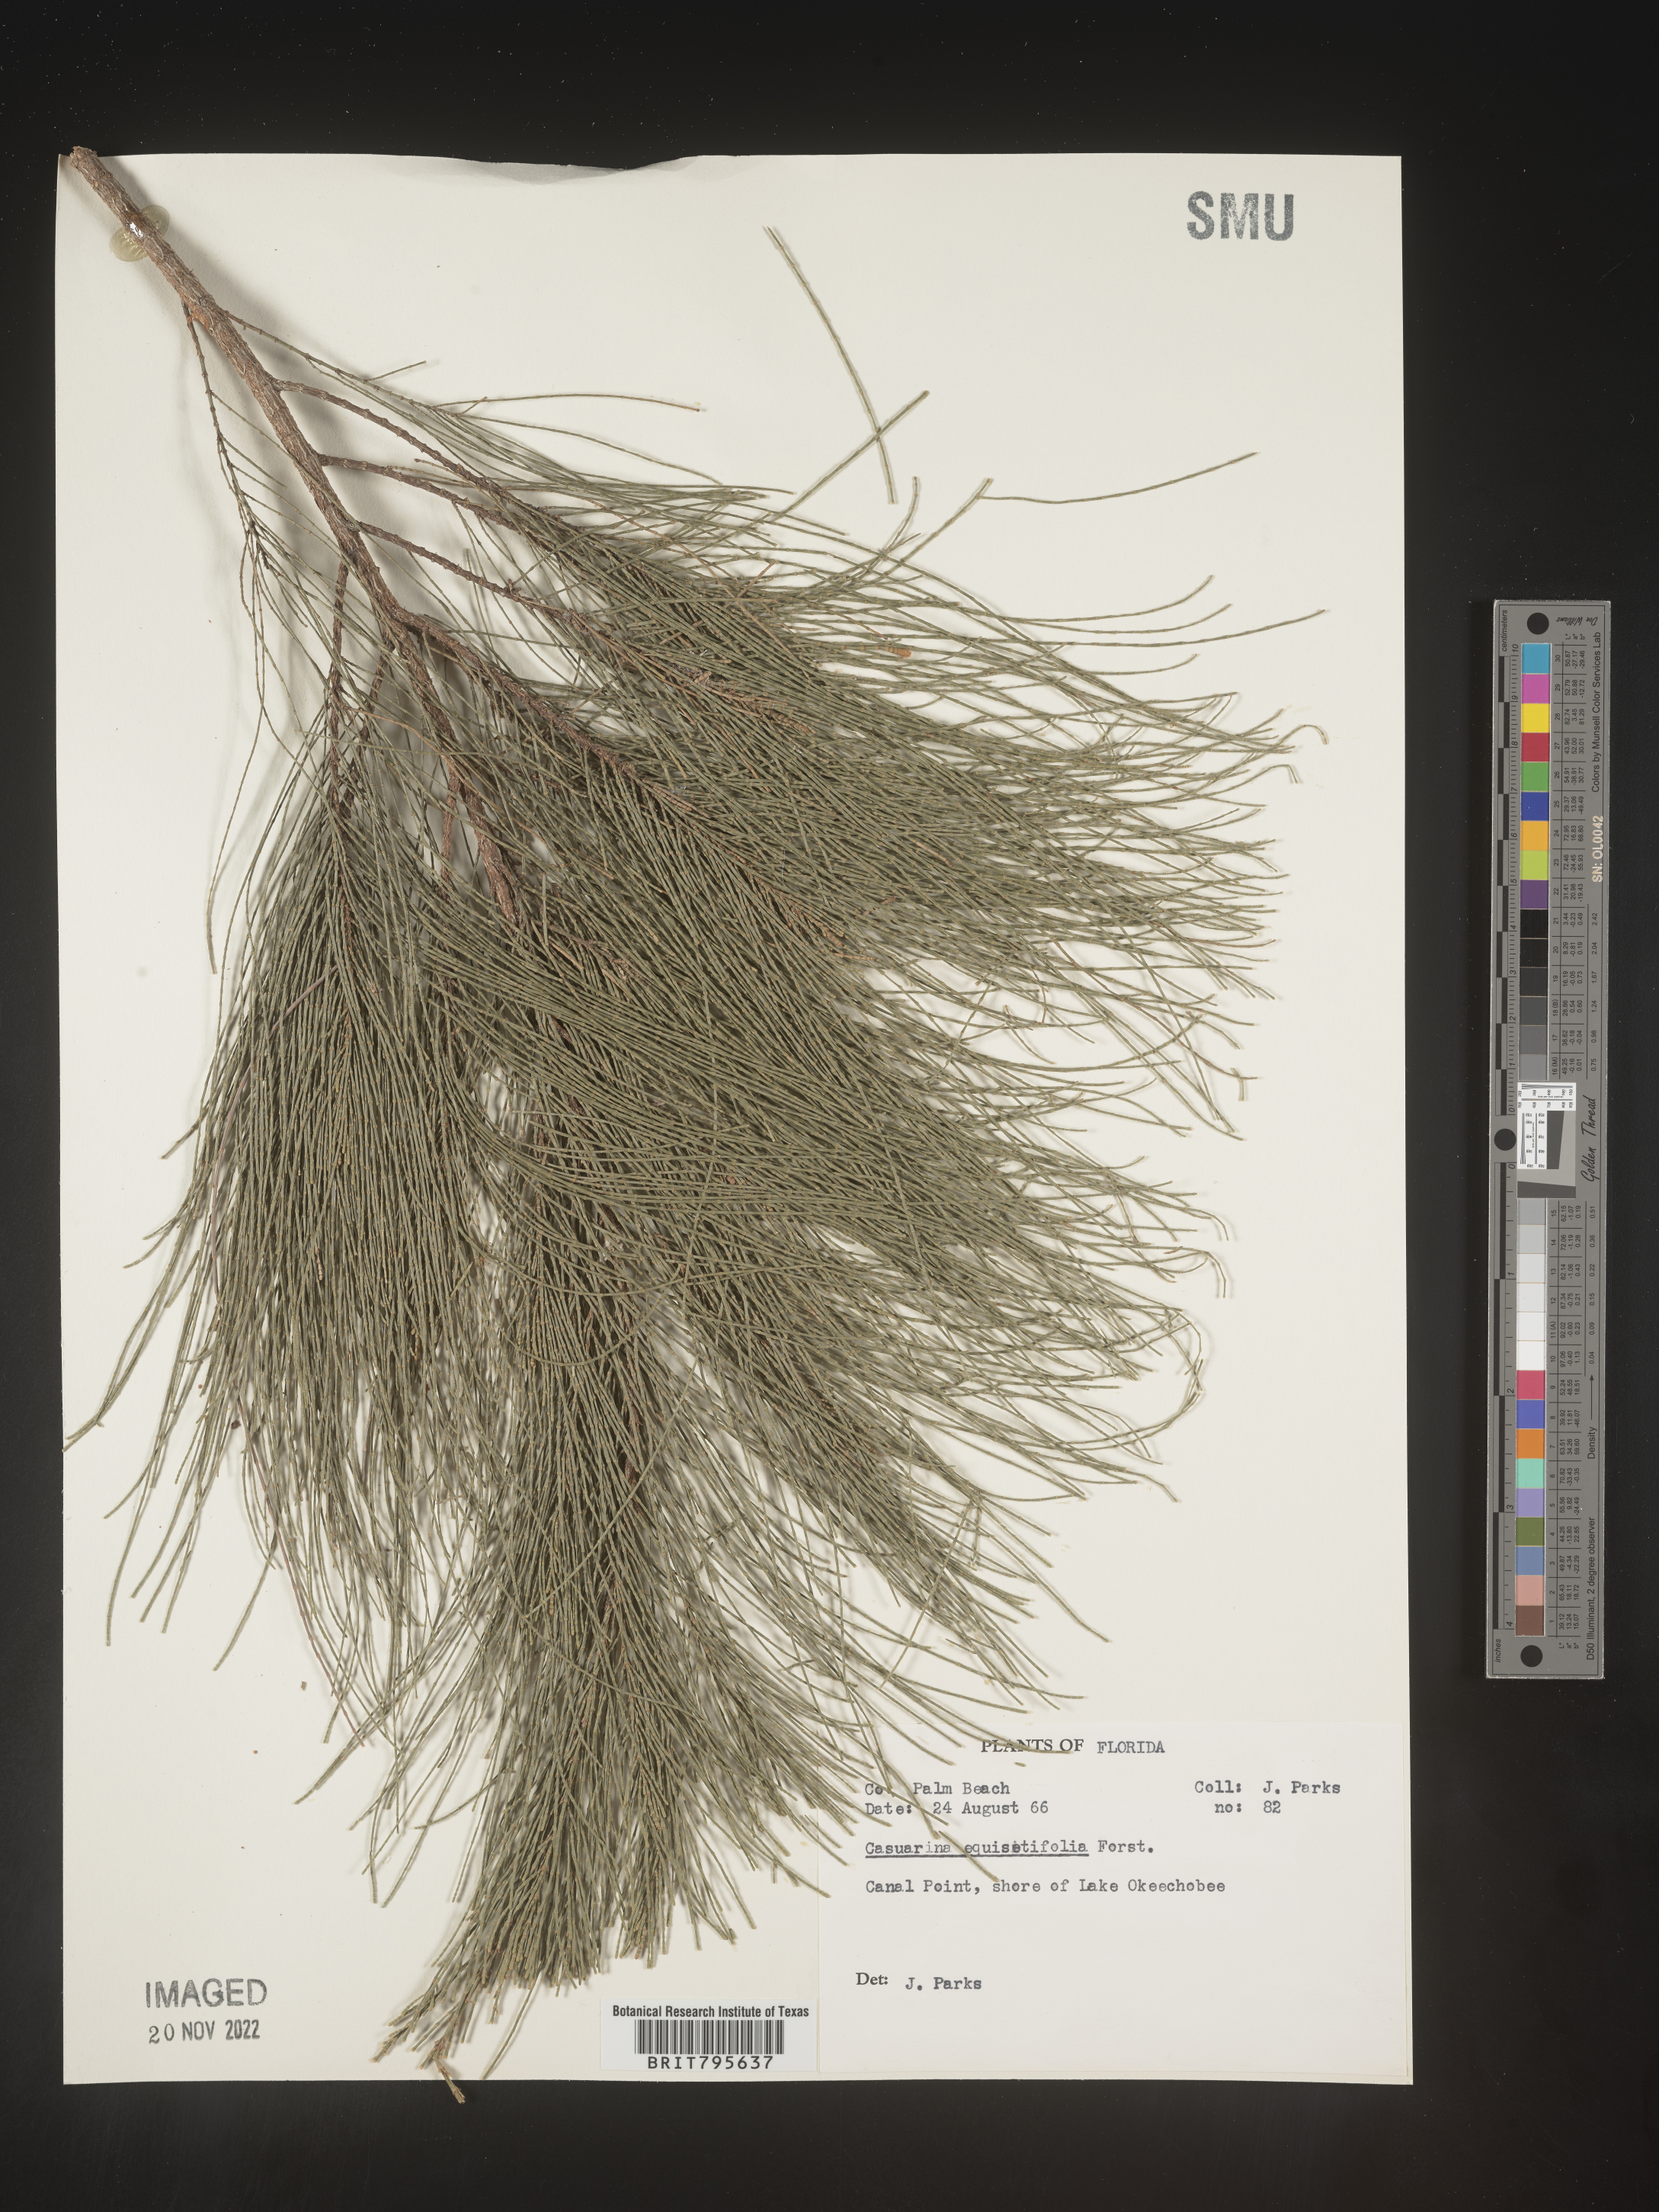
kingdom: Plantae
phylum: Tracheophyta
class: Magnoliopsida
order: Fagales
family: Casuarinaceae
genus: Casuarina
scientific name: Casuarina equisetifolia
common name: Beach sheoak
